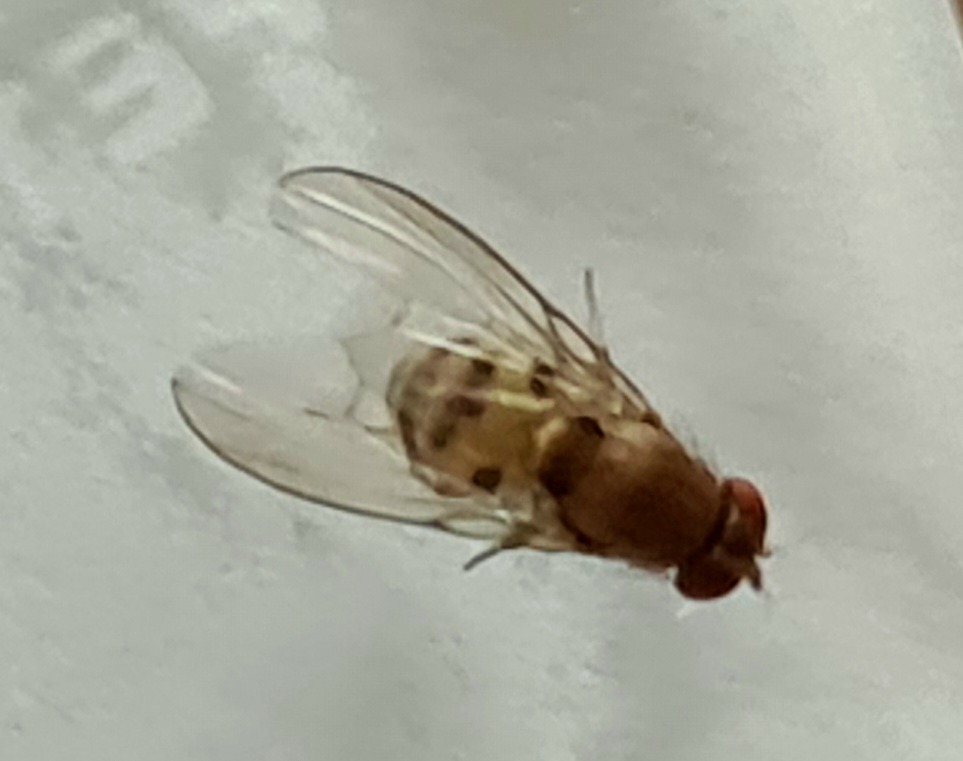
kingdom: Animalia
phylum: Arthropoda
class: Insecta
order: Diptera
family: Drosophilidae
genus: Leucophenga
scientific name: Leucophenga maculata
